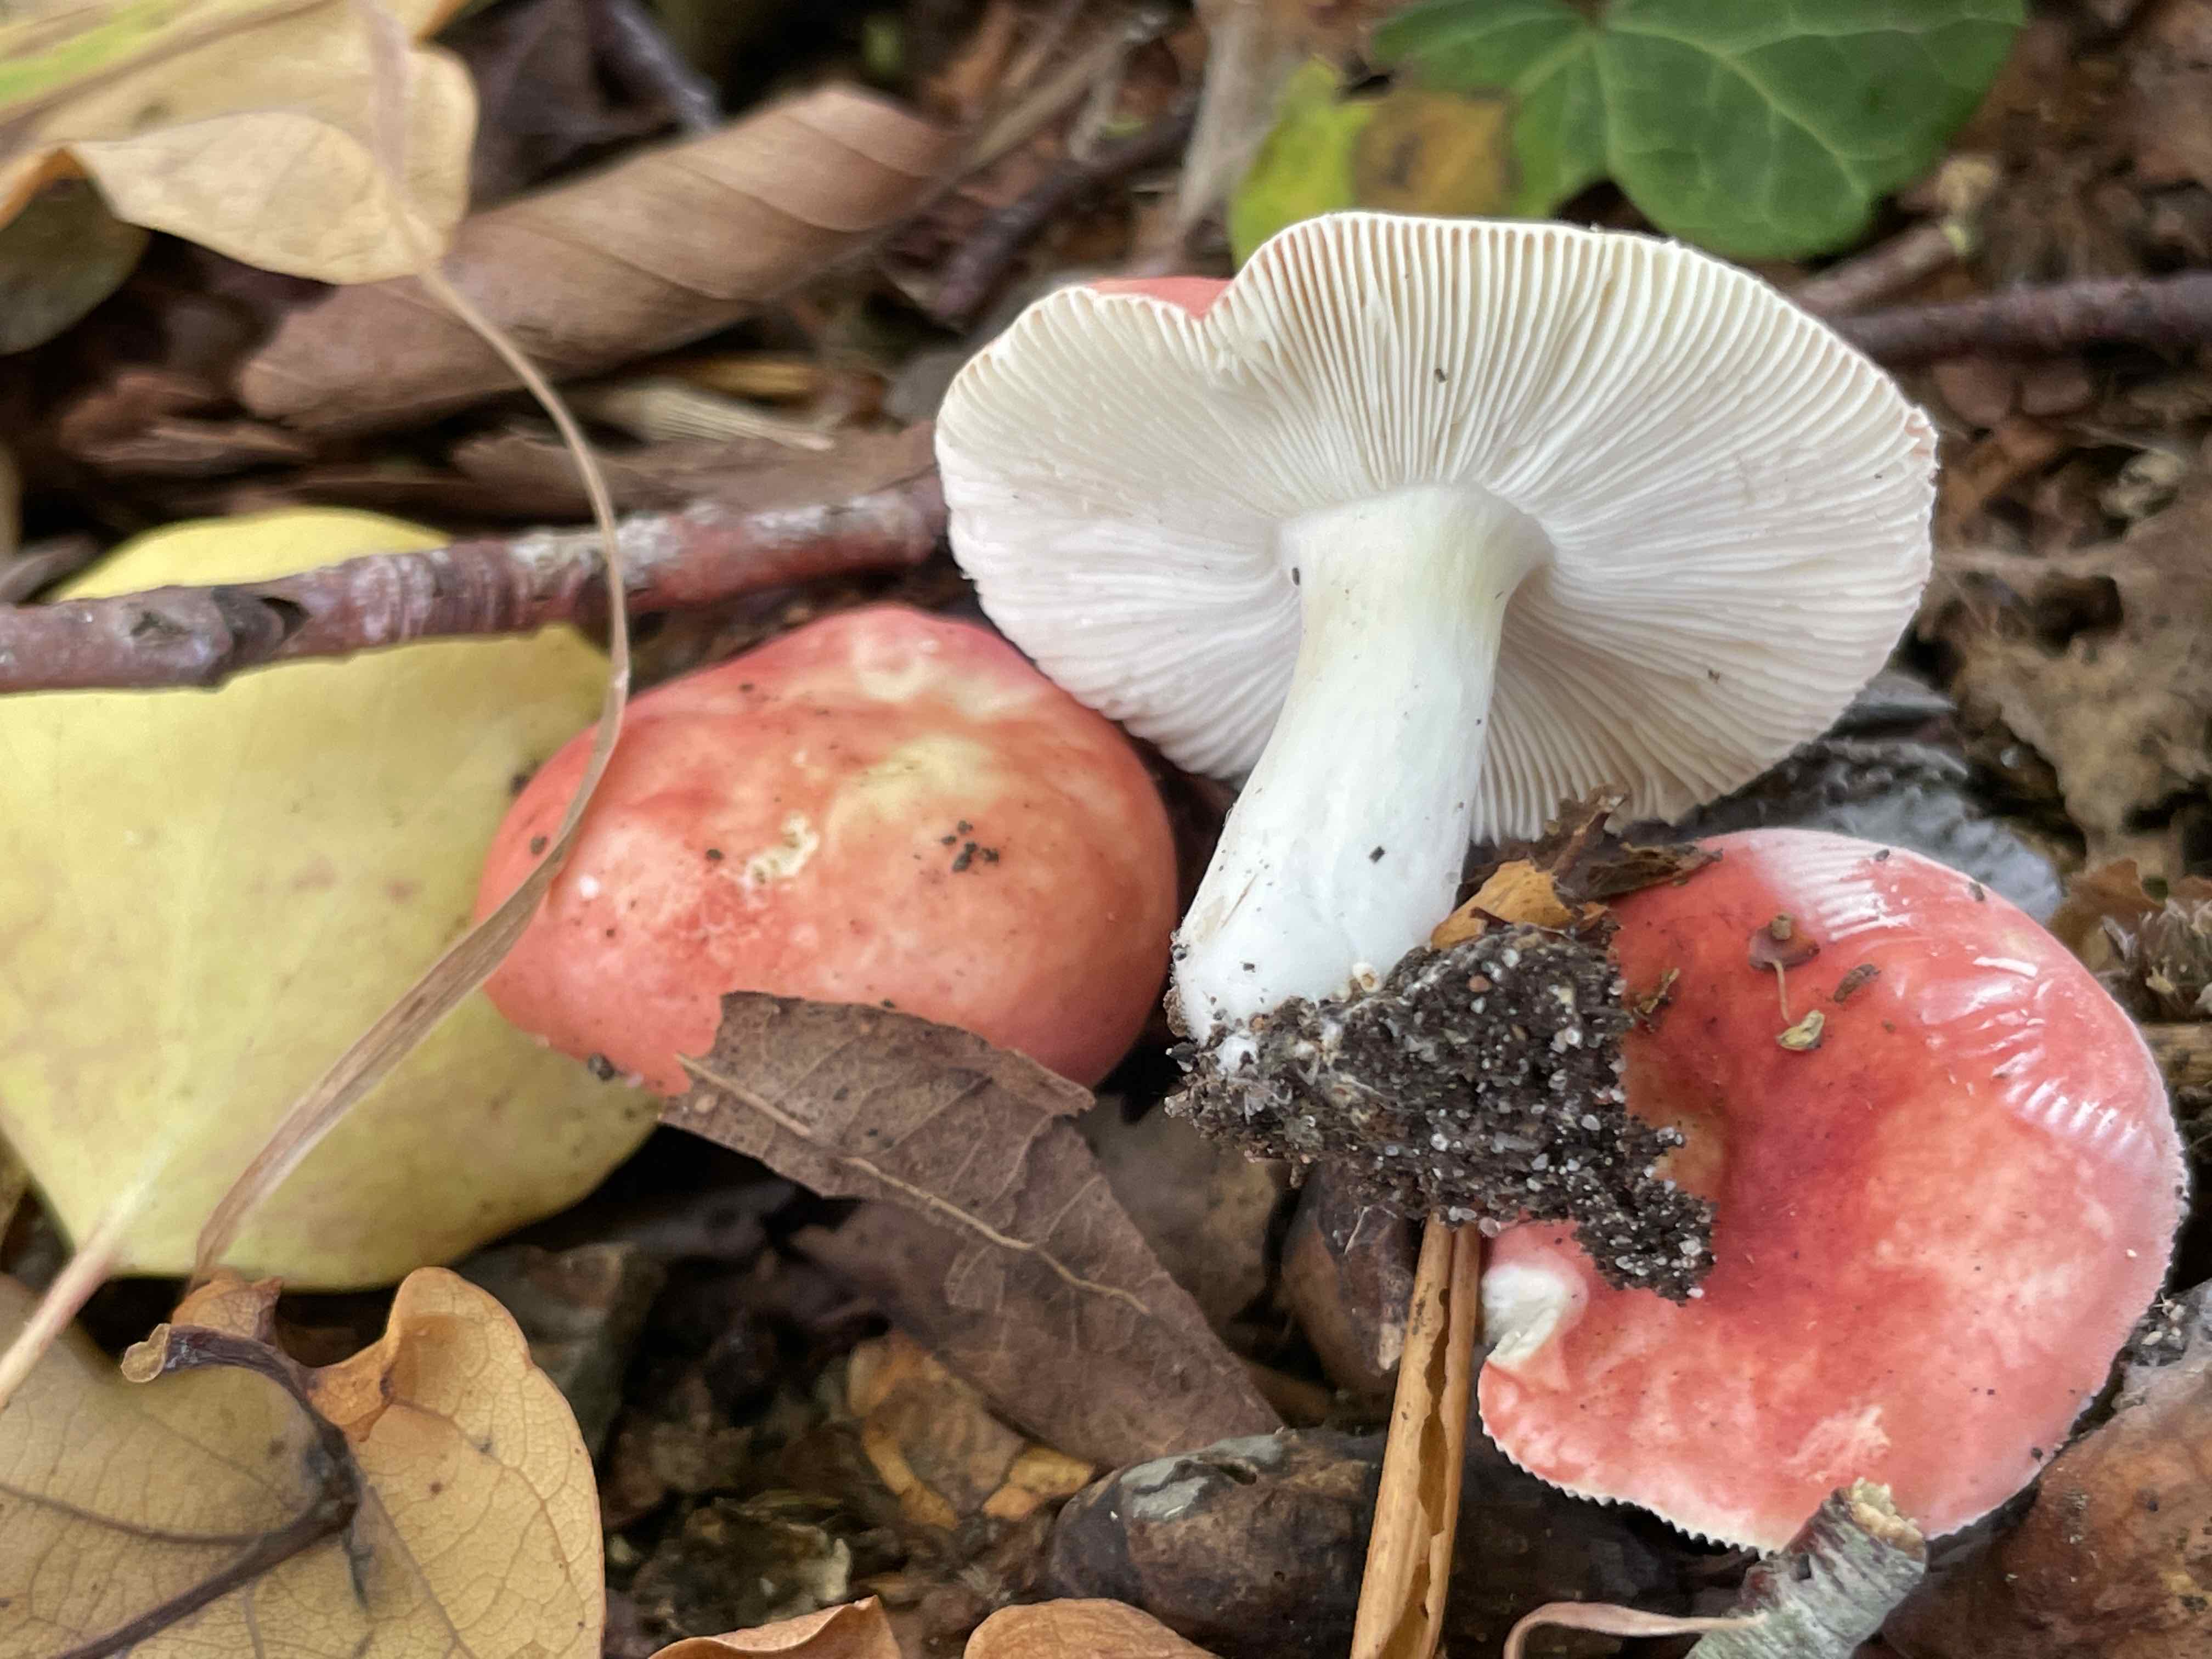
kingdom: Fungi
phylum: Basidiomycota
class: Agaricomycetes
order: Russulales
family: Russulaceae
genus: Russula
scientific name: Russula nobilis
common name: lille gift-skørhat
